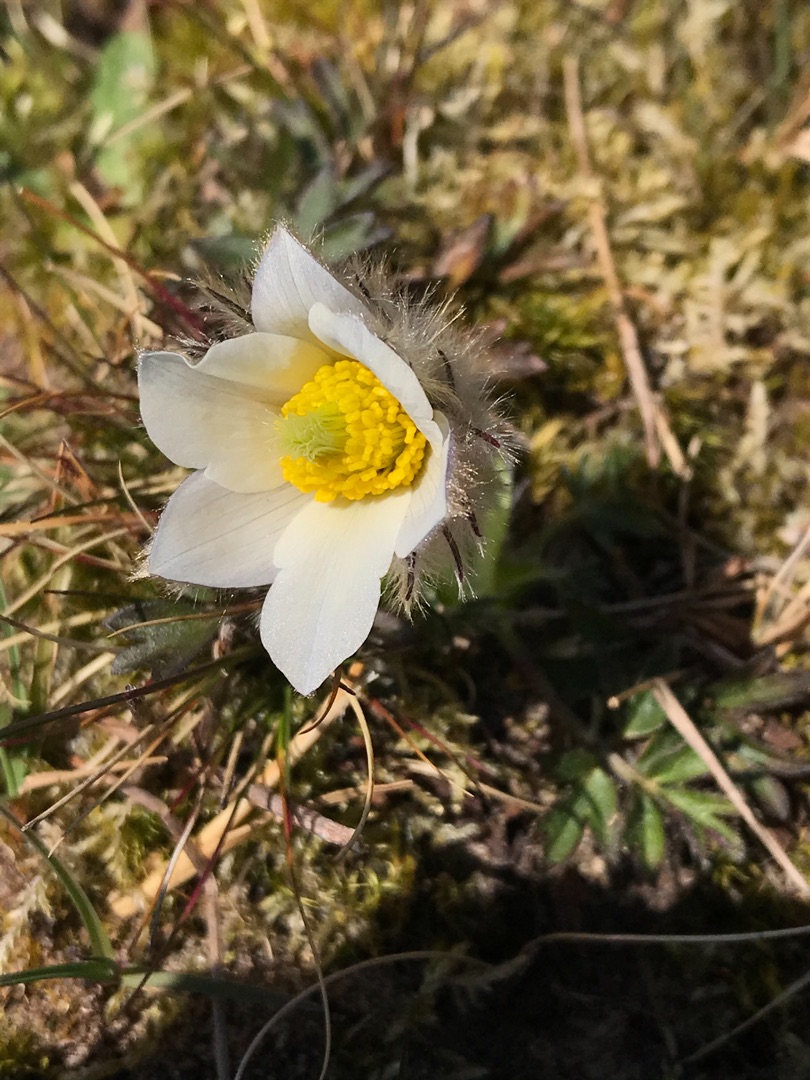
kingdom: Plantae
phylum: Tracheophyta
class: Magnoliopsida
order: Ranunculales
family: Ranunculaceae
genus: Pulsatilla
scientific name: Pulsatilla vernalis
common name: Vår-kobjælde
